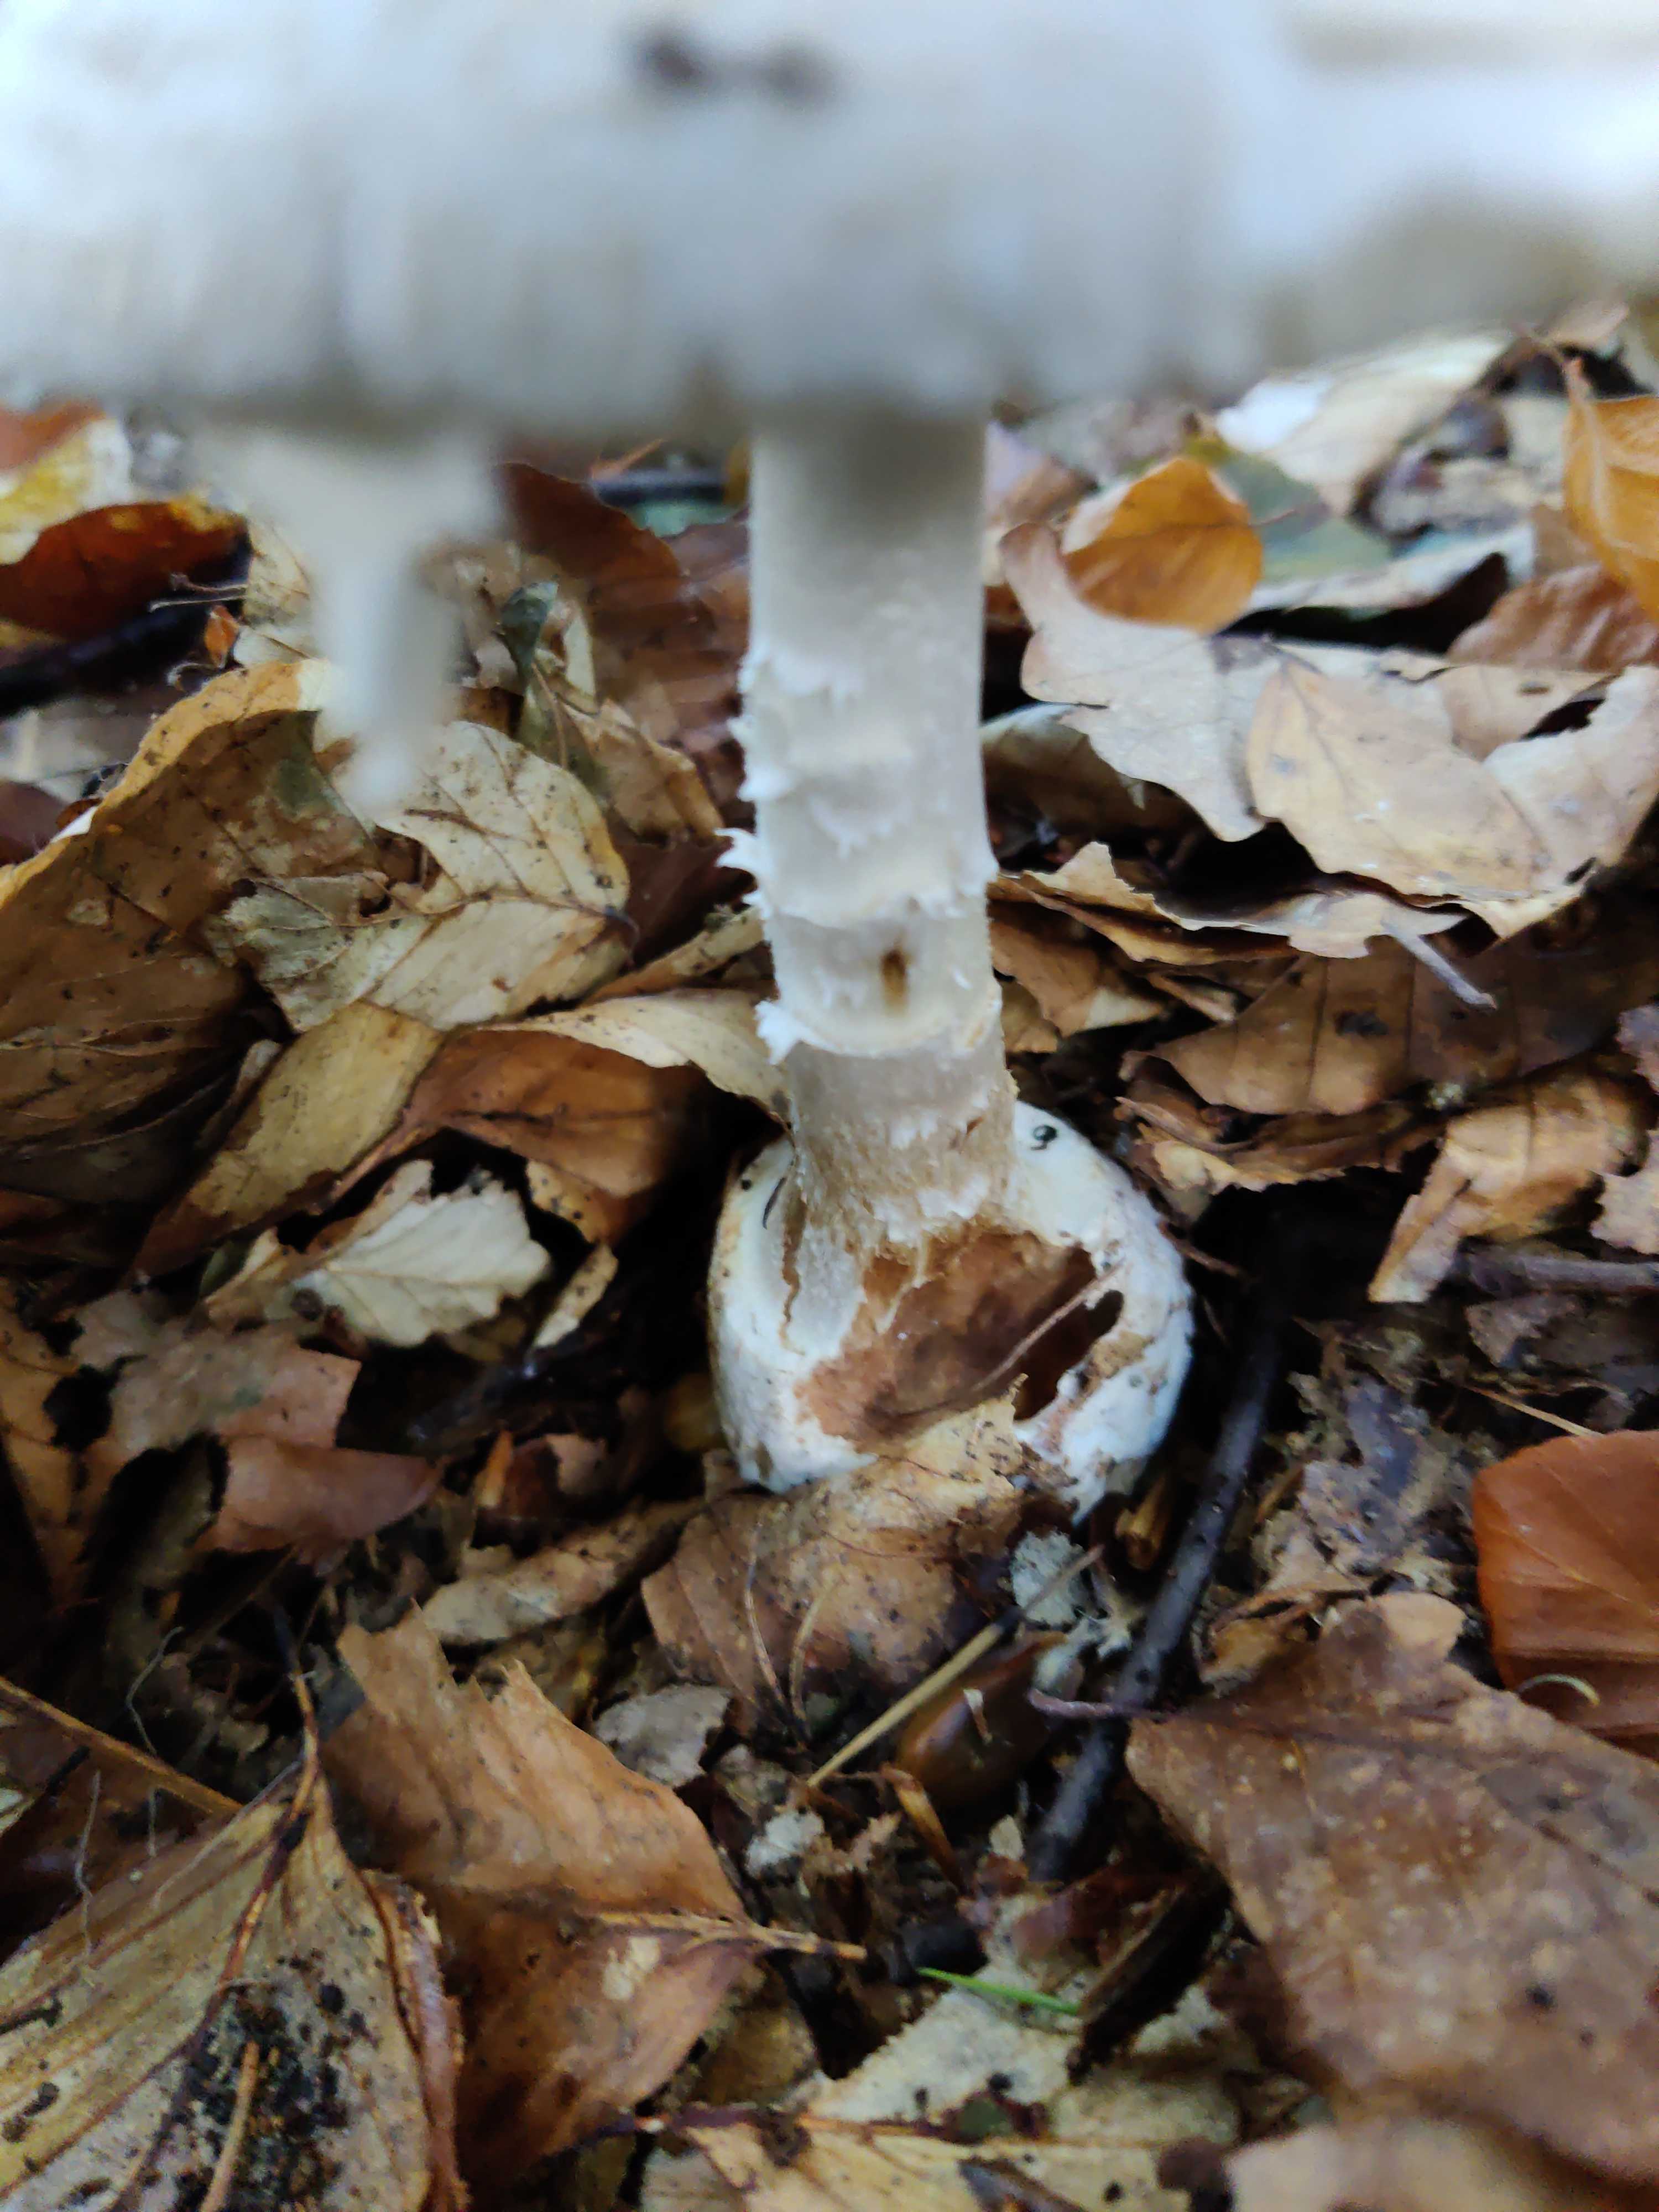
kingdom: Fungi
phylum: Basidiomycota
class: Agaricomycetes
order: Agaricales
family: Amanitaceae
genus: Amanita
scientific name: Amanita citrina
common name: False death-cap
